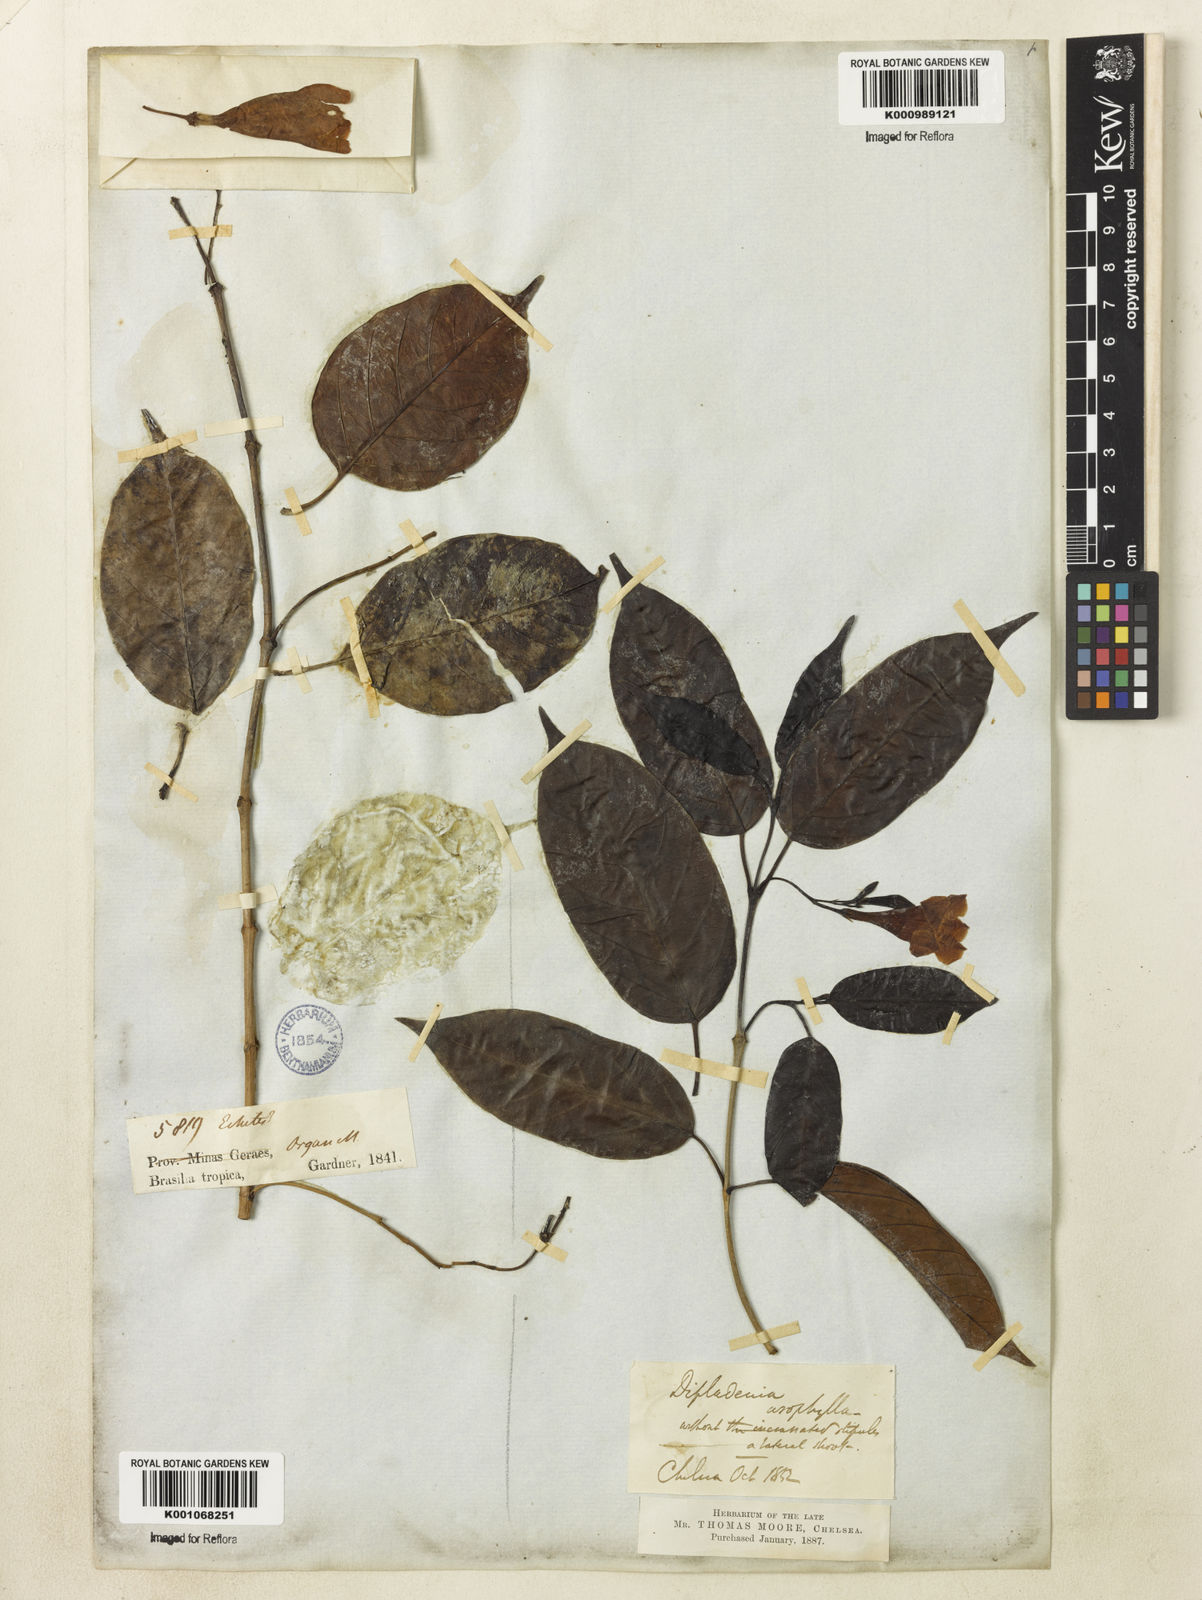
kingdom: Plantae
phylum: Tracheophyta
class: Magnoliopsida
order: Gentianales
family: Apocynaceae
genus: Mandevilla
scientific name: Mandevilla urophylla
